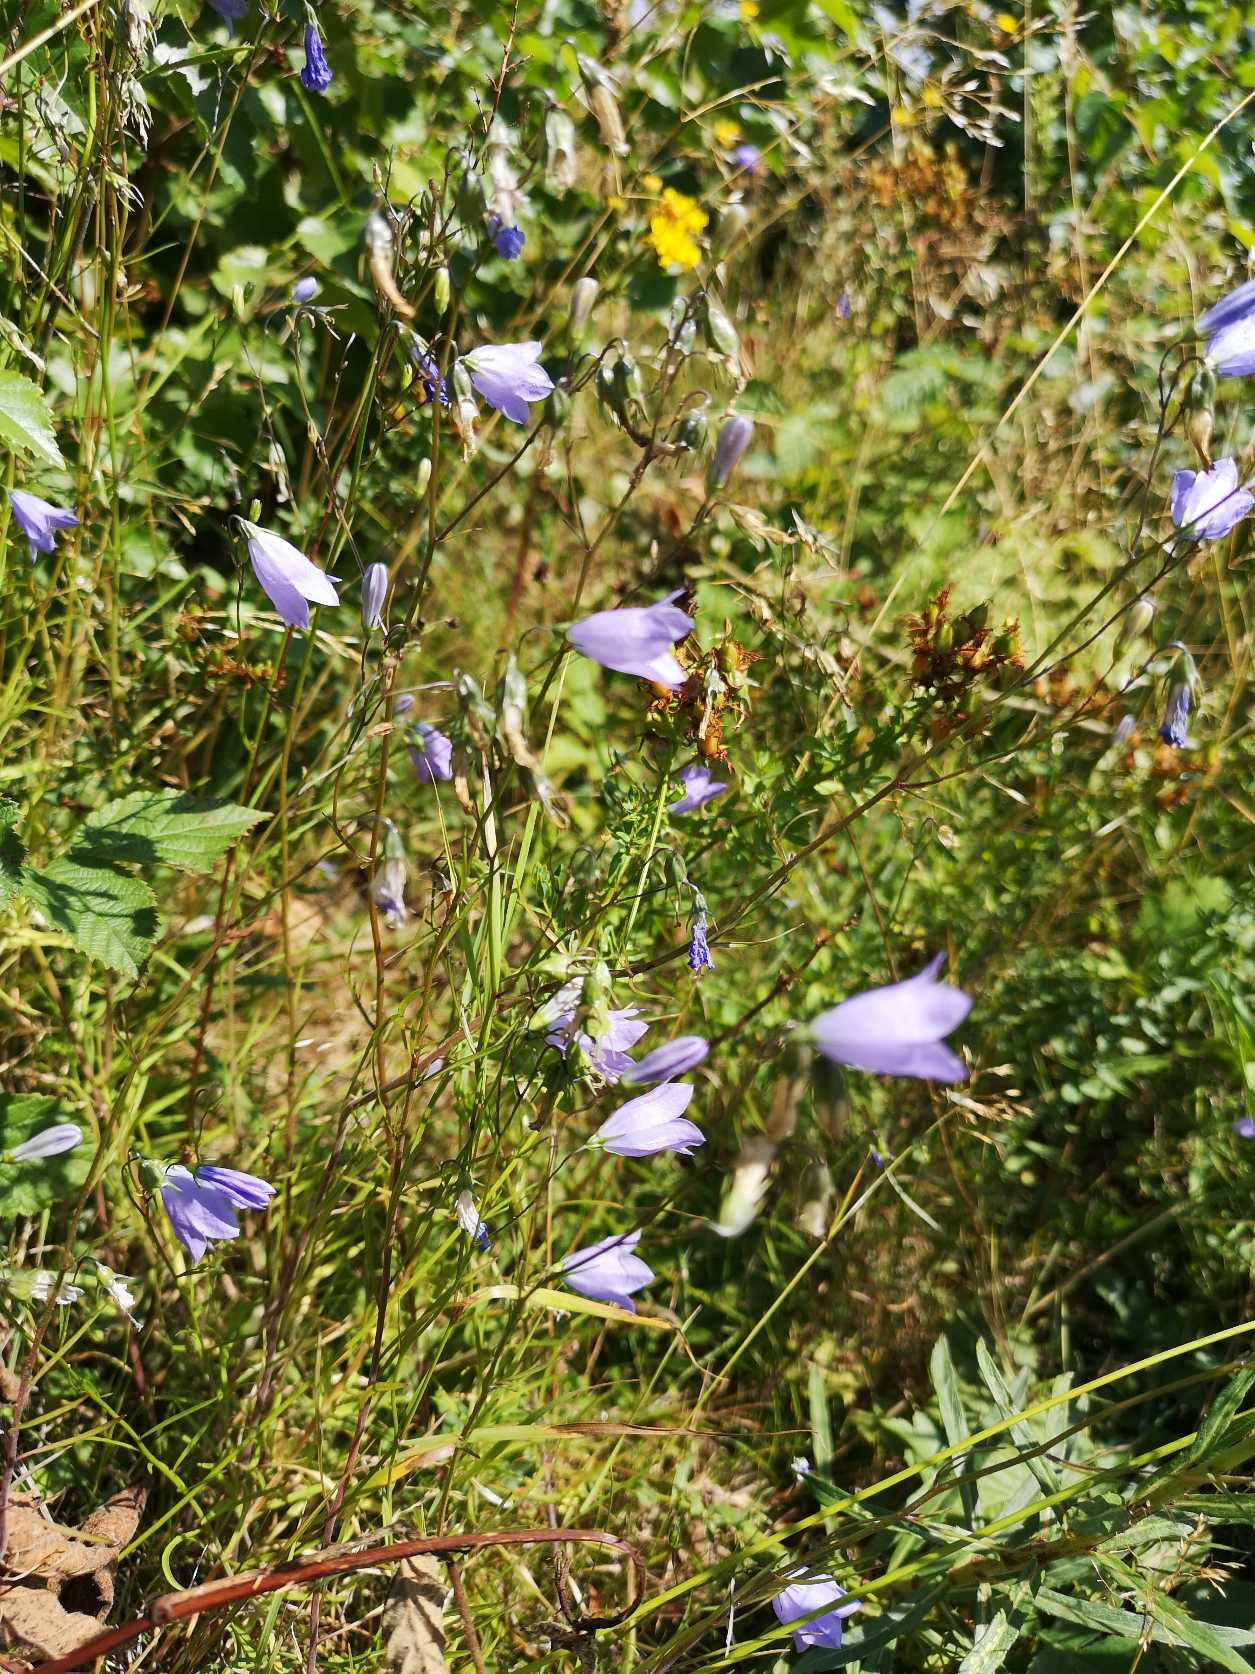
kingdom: Plantae
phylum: Tracheophyta
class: Magnoliopsida
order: Asterales
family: Campanulaceae
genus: Campanula
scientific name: Campanula rotundifolia
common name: Liden klokke
